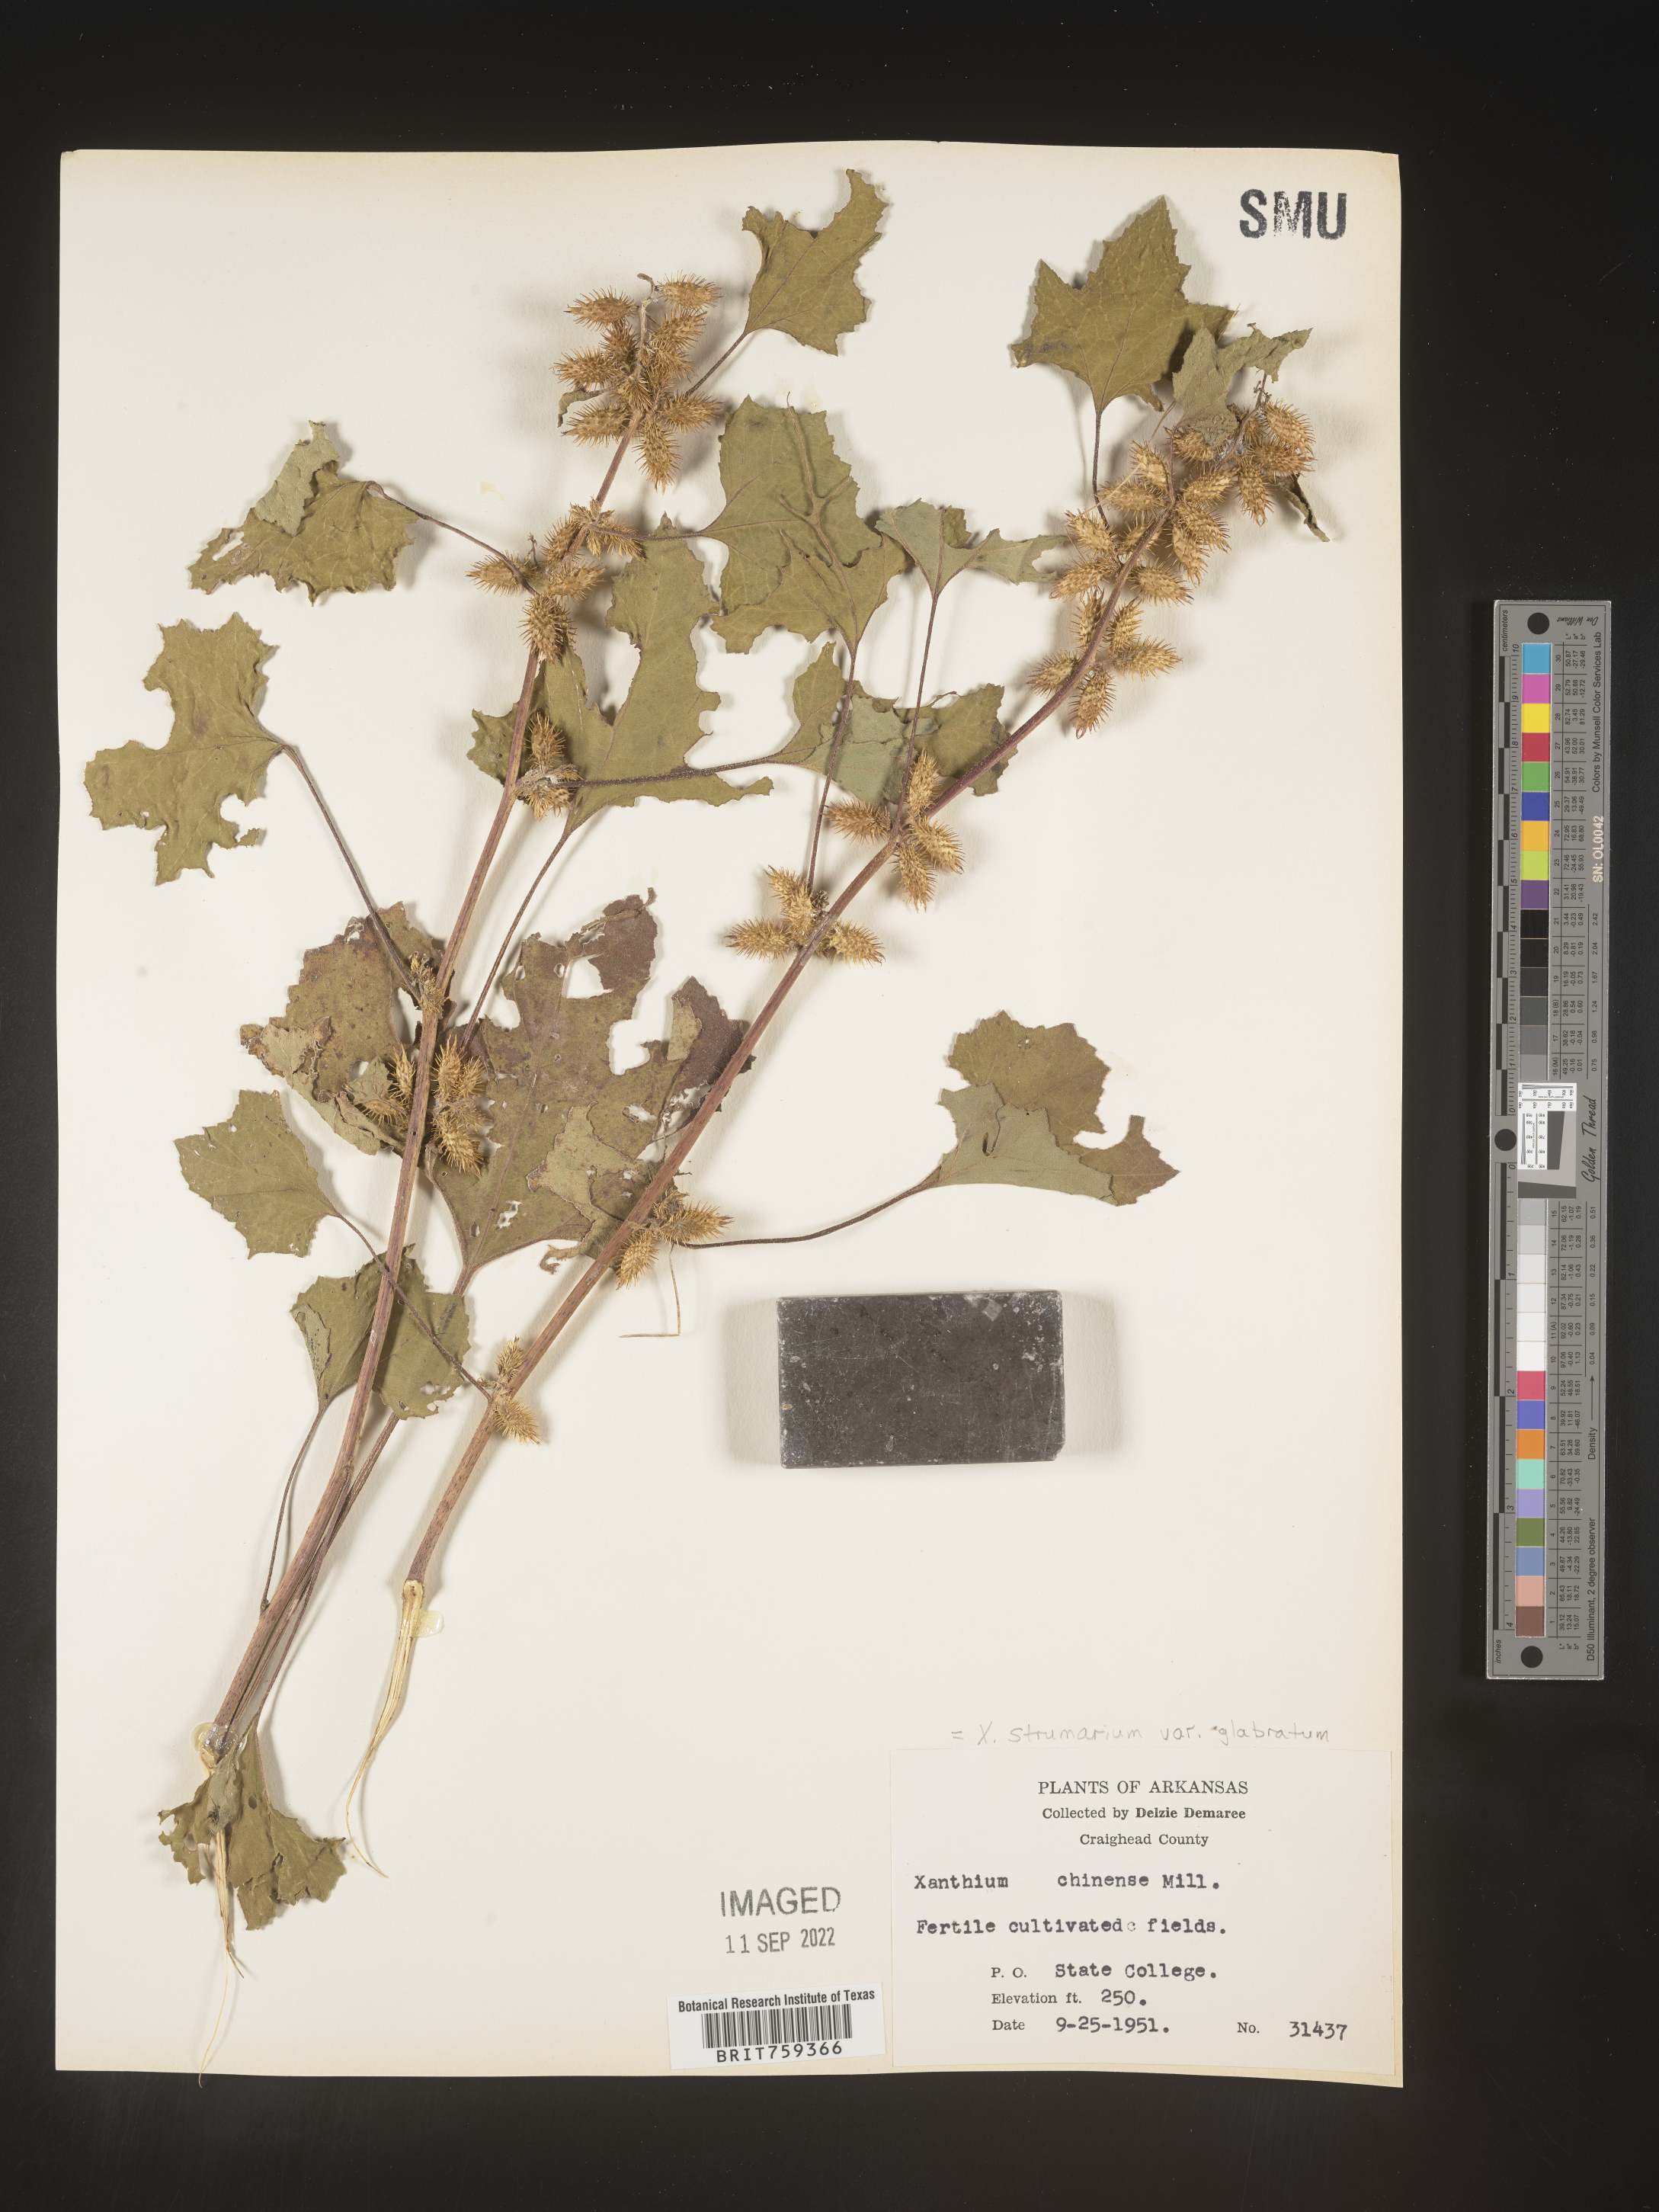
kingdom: Plantae
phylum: Tracheophyta
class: Magnoliopsida
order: Asterales
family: Asteraceae
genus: Xanthium
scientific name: Xanthium occidentale
